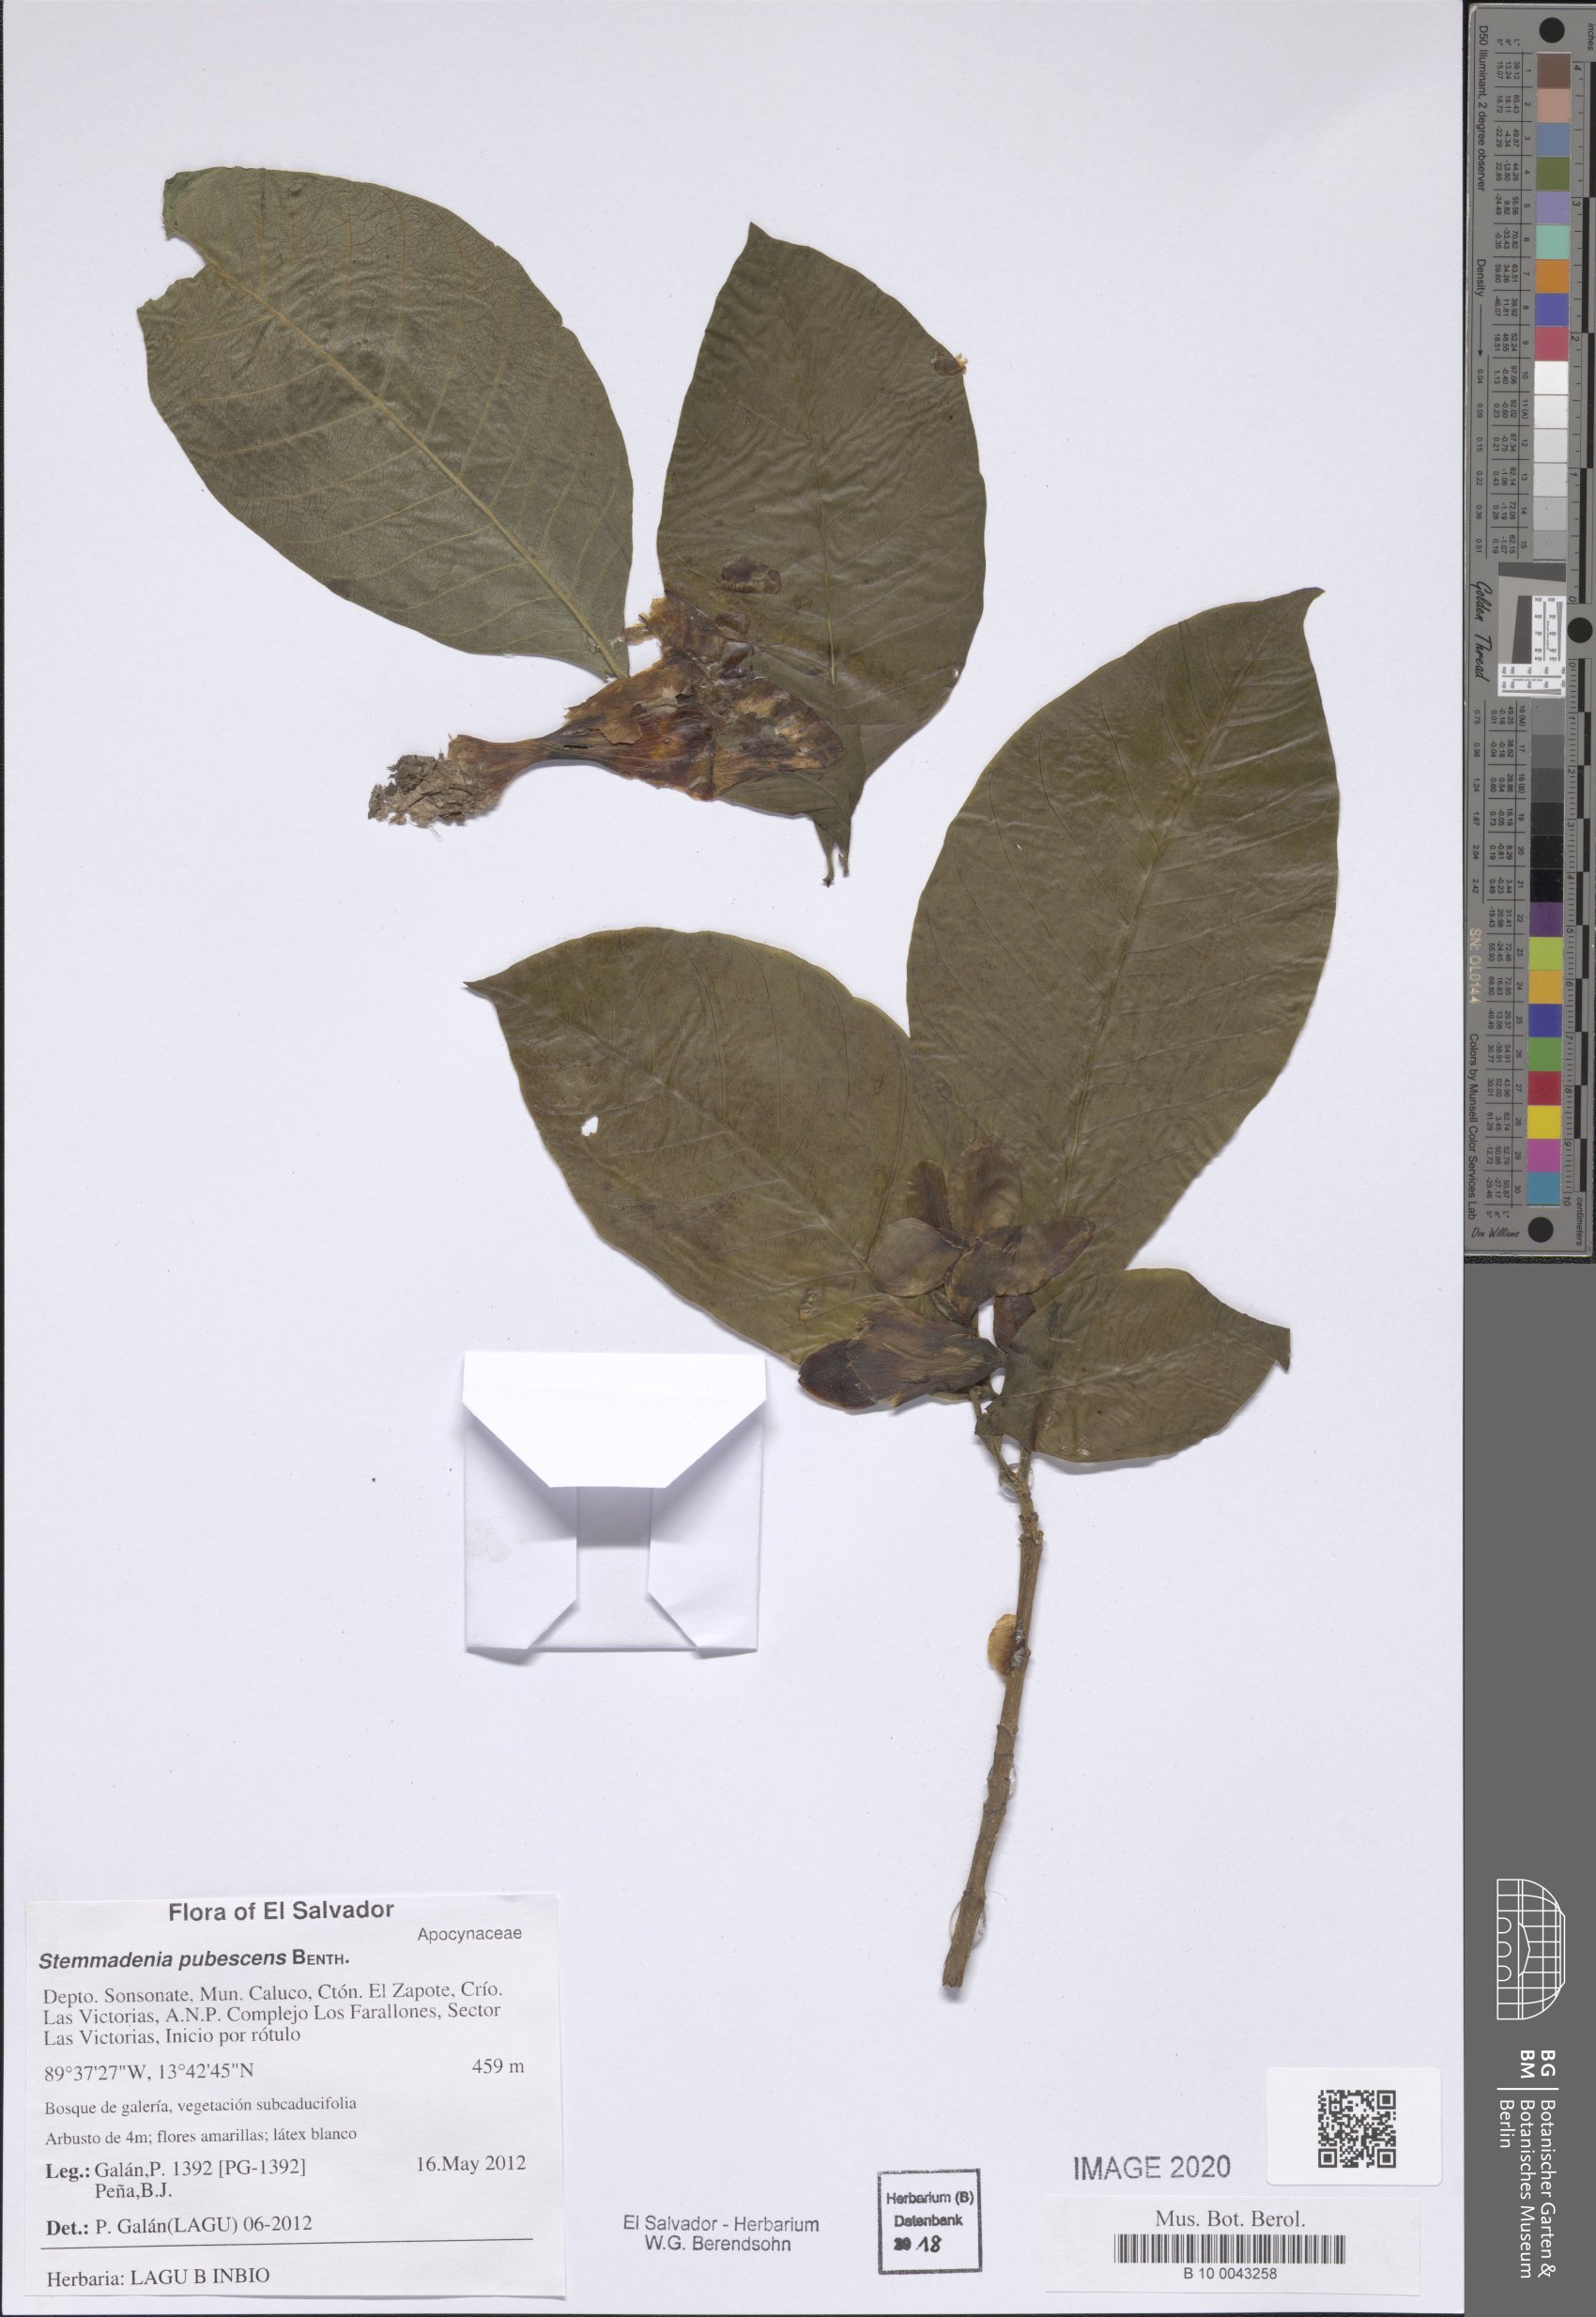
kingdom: Plantae
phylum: Tracheophyta
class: Magnoliopsida
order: Gentianales
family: Apocynaceae
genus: Tabernaemontana
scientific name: Tabernaemontana glabra
